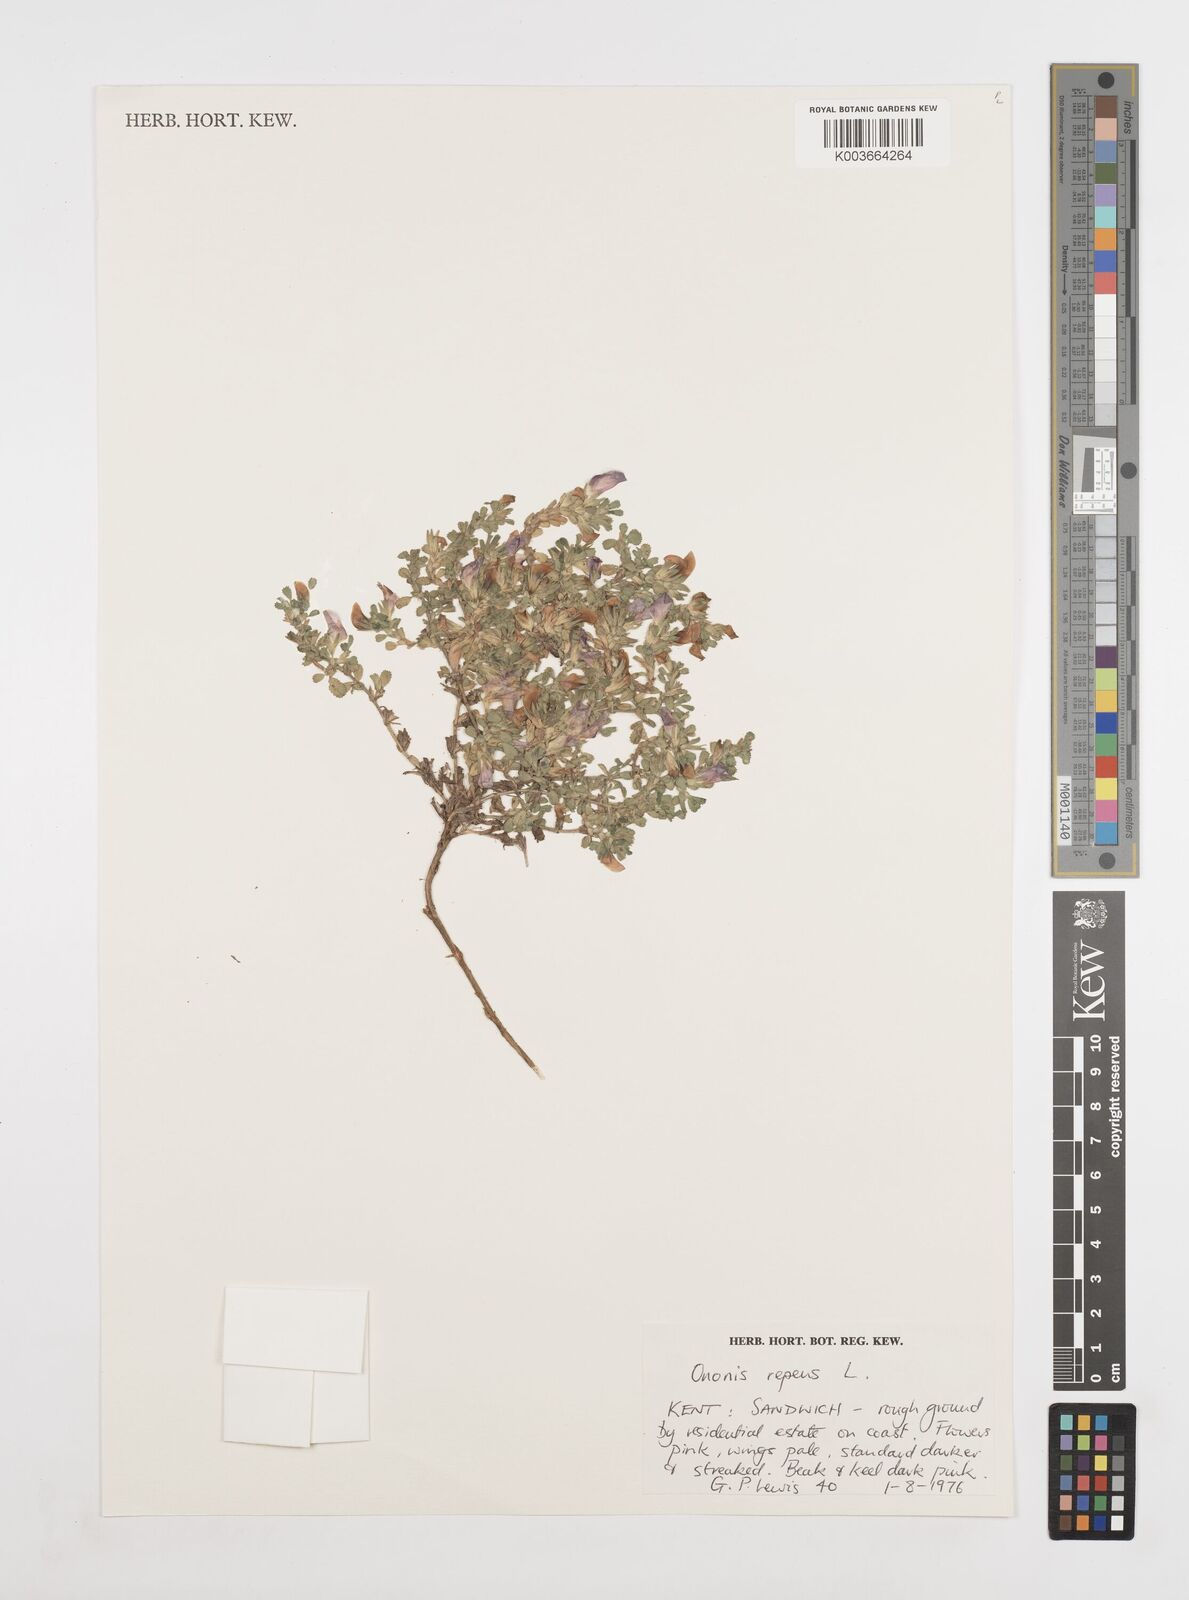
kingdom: Plantae
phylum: Tracheophyta
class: Magnoliopsida
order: Fabales
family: Fabaceae
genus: Ononis
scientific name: Ononis spinosa
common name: Spiny restharrow
